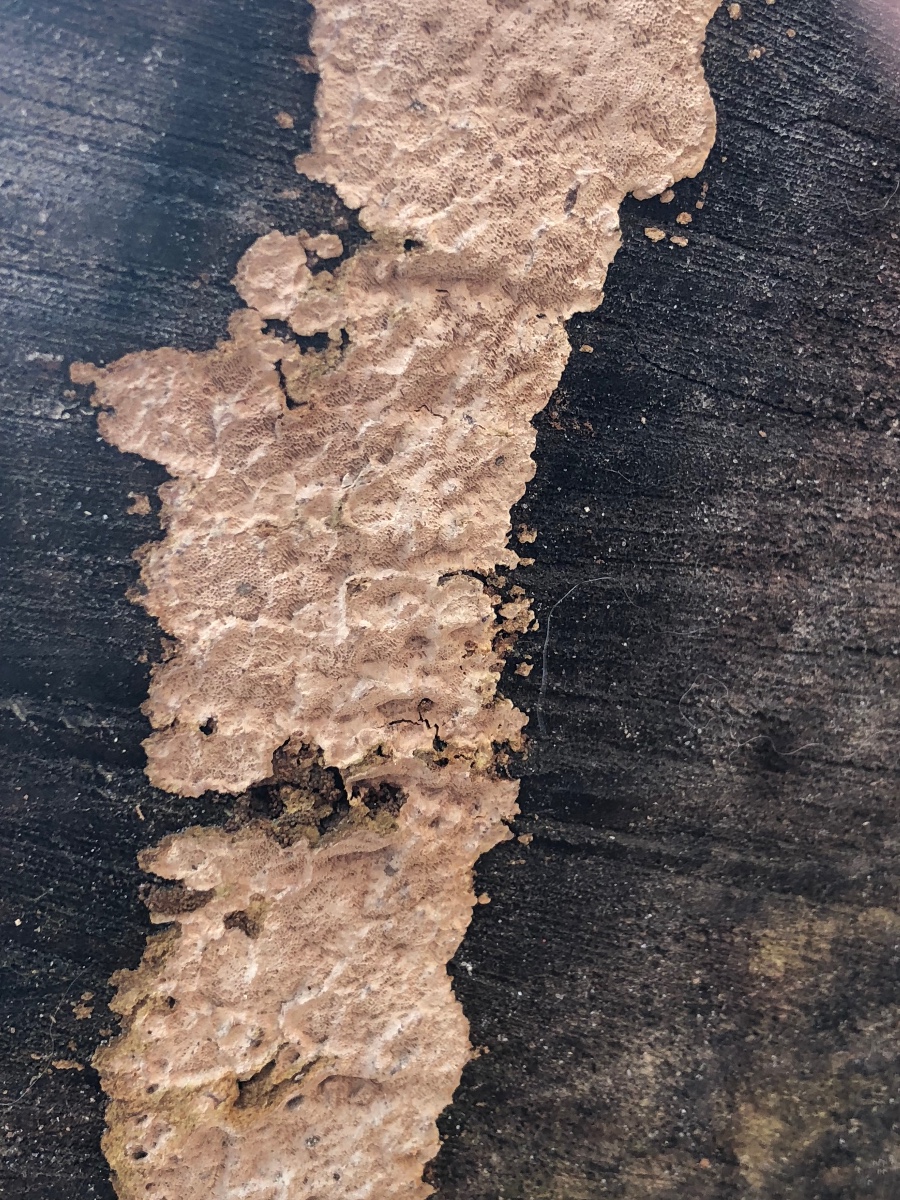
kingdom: Fungi
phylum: Basidiomycota
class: Agaricomycetes
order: Polyporales
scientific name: Polyporales
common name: poresvampordenen
